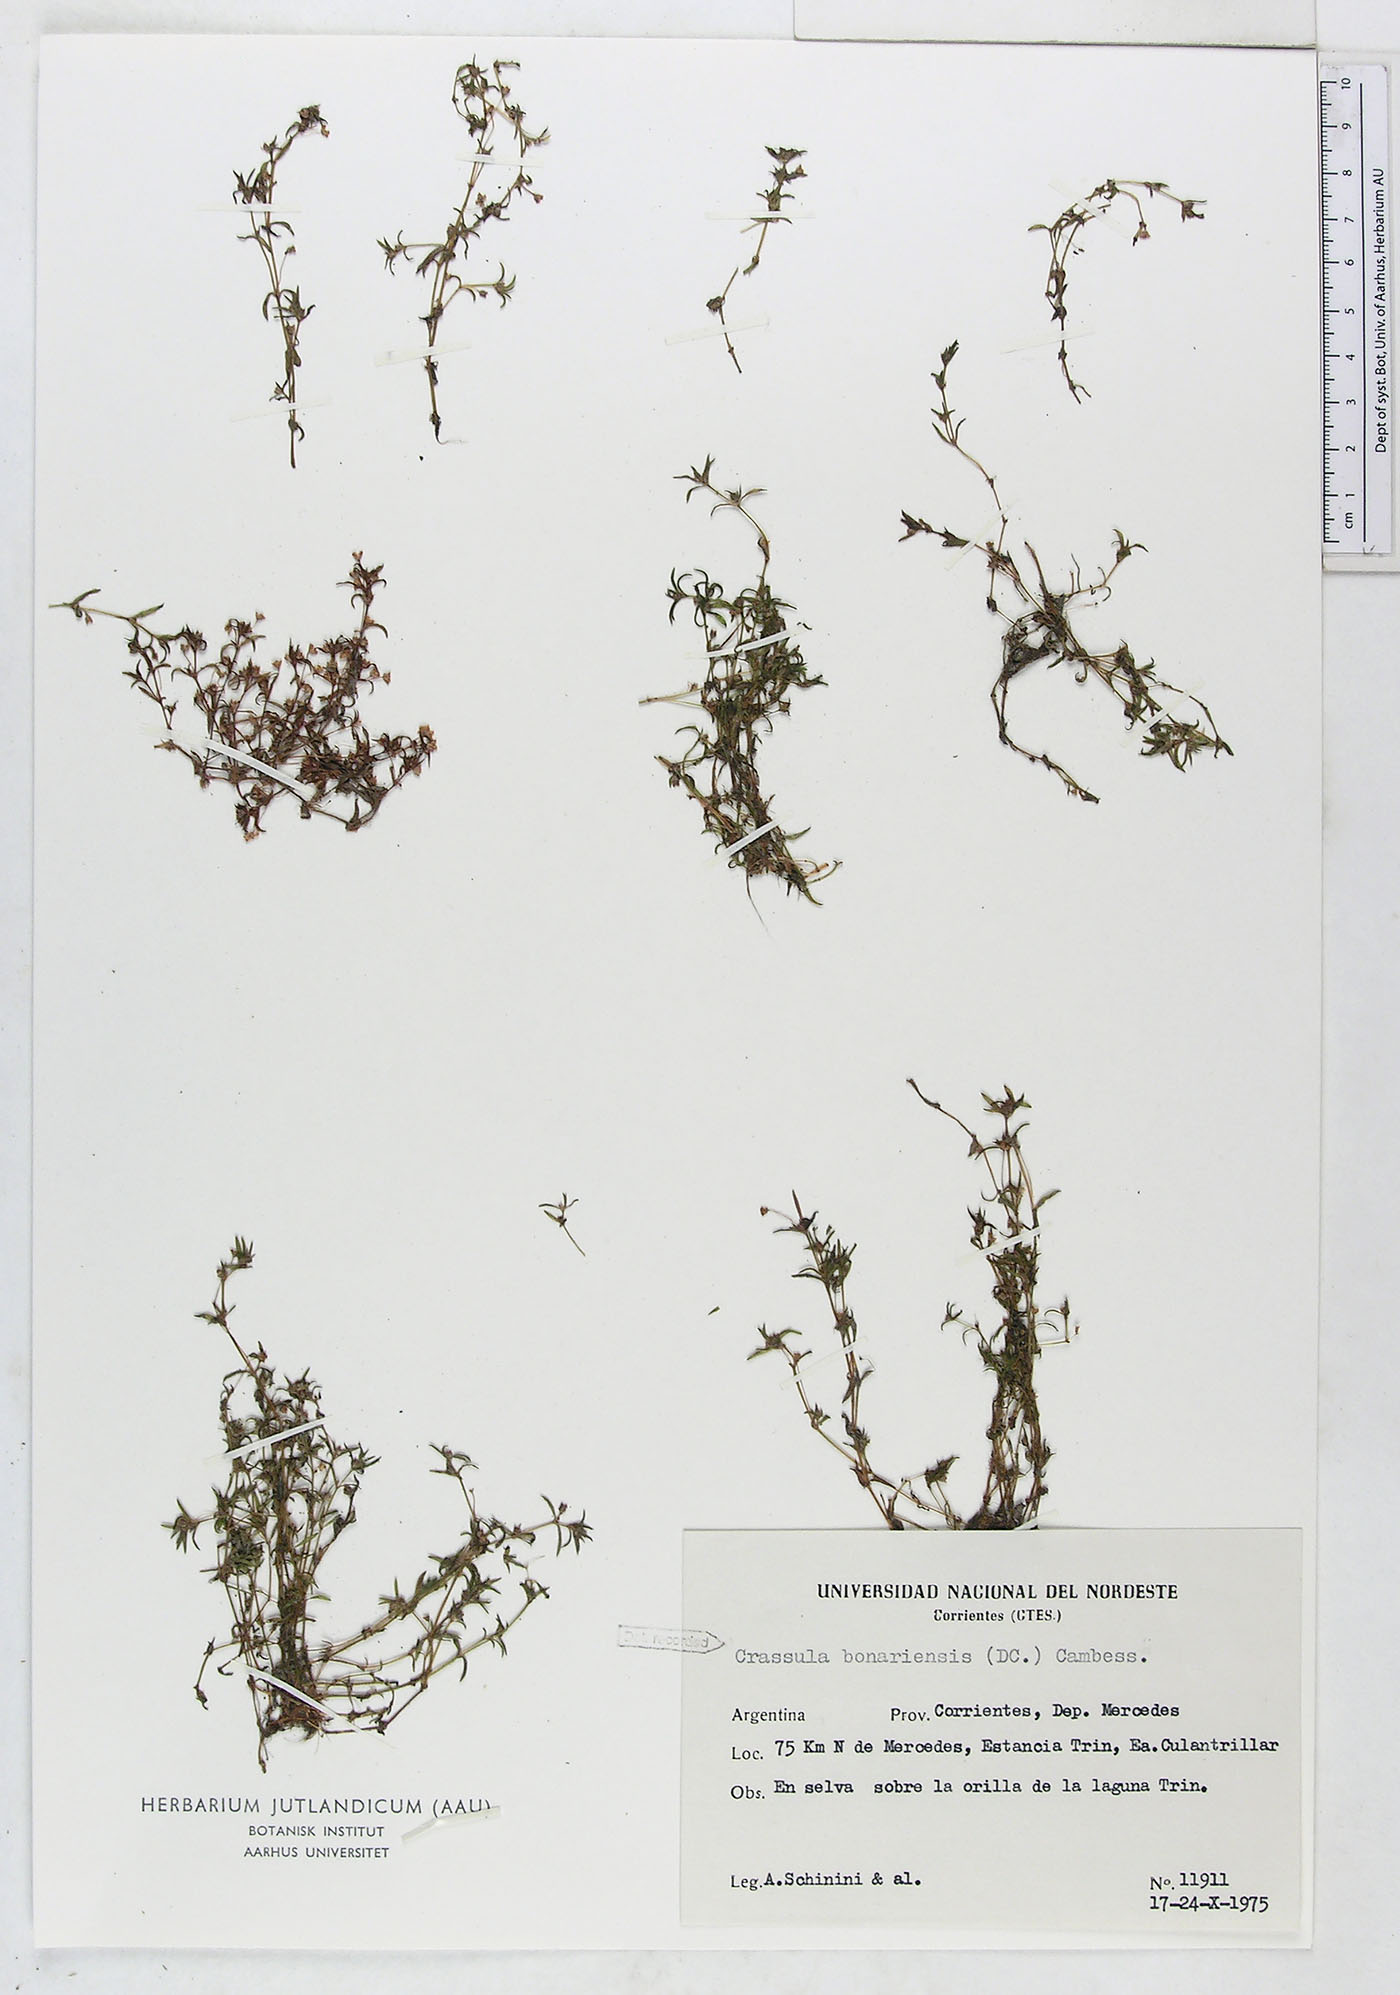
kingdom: Plantae
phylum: Tracheophyta
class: Magnoliopsida
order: Saxifragales
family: Crassulaceae
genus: Crassula
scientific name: Crassula peduncularis
